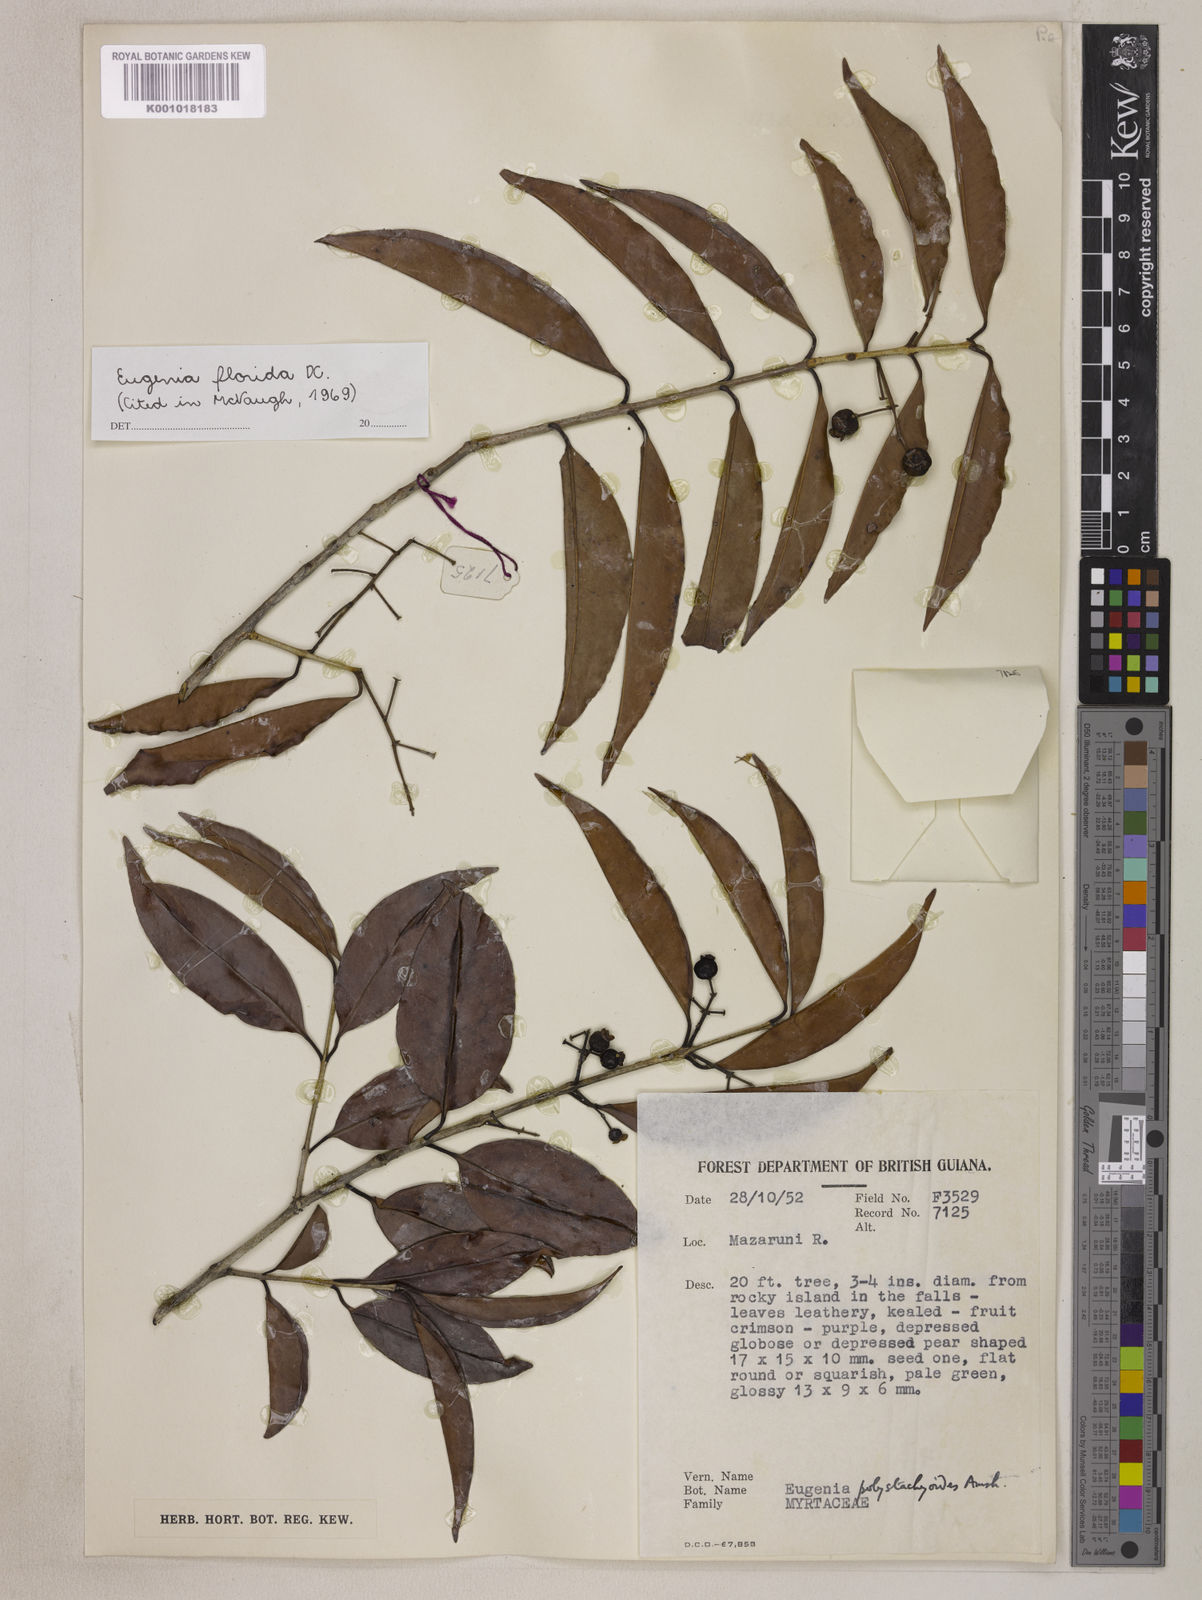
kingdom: Plantae
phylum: Tracheophyta
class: Magnoliopsida
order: Myrtales
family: Myrtaceae
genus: Eugenia
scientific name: Eugenia florida
